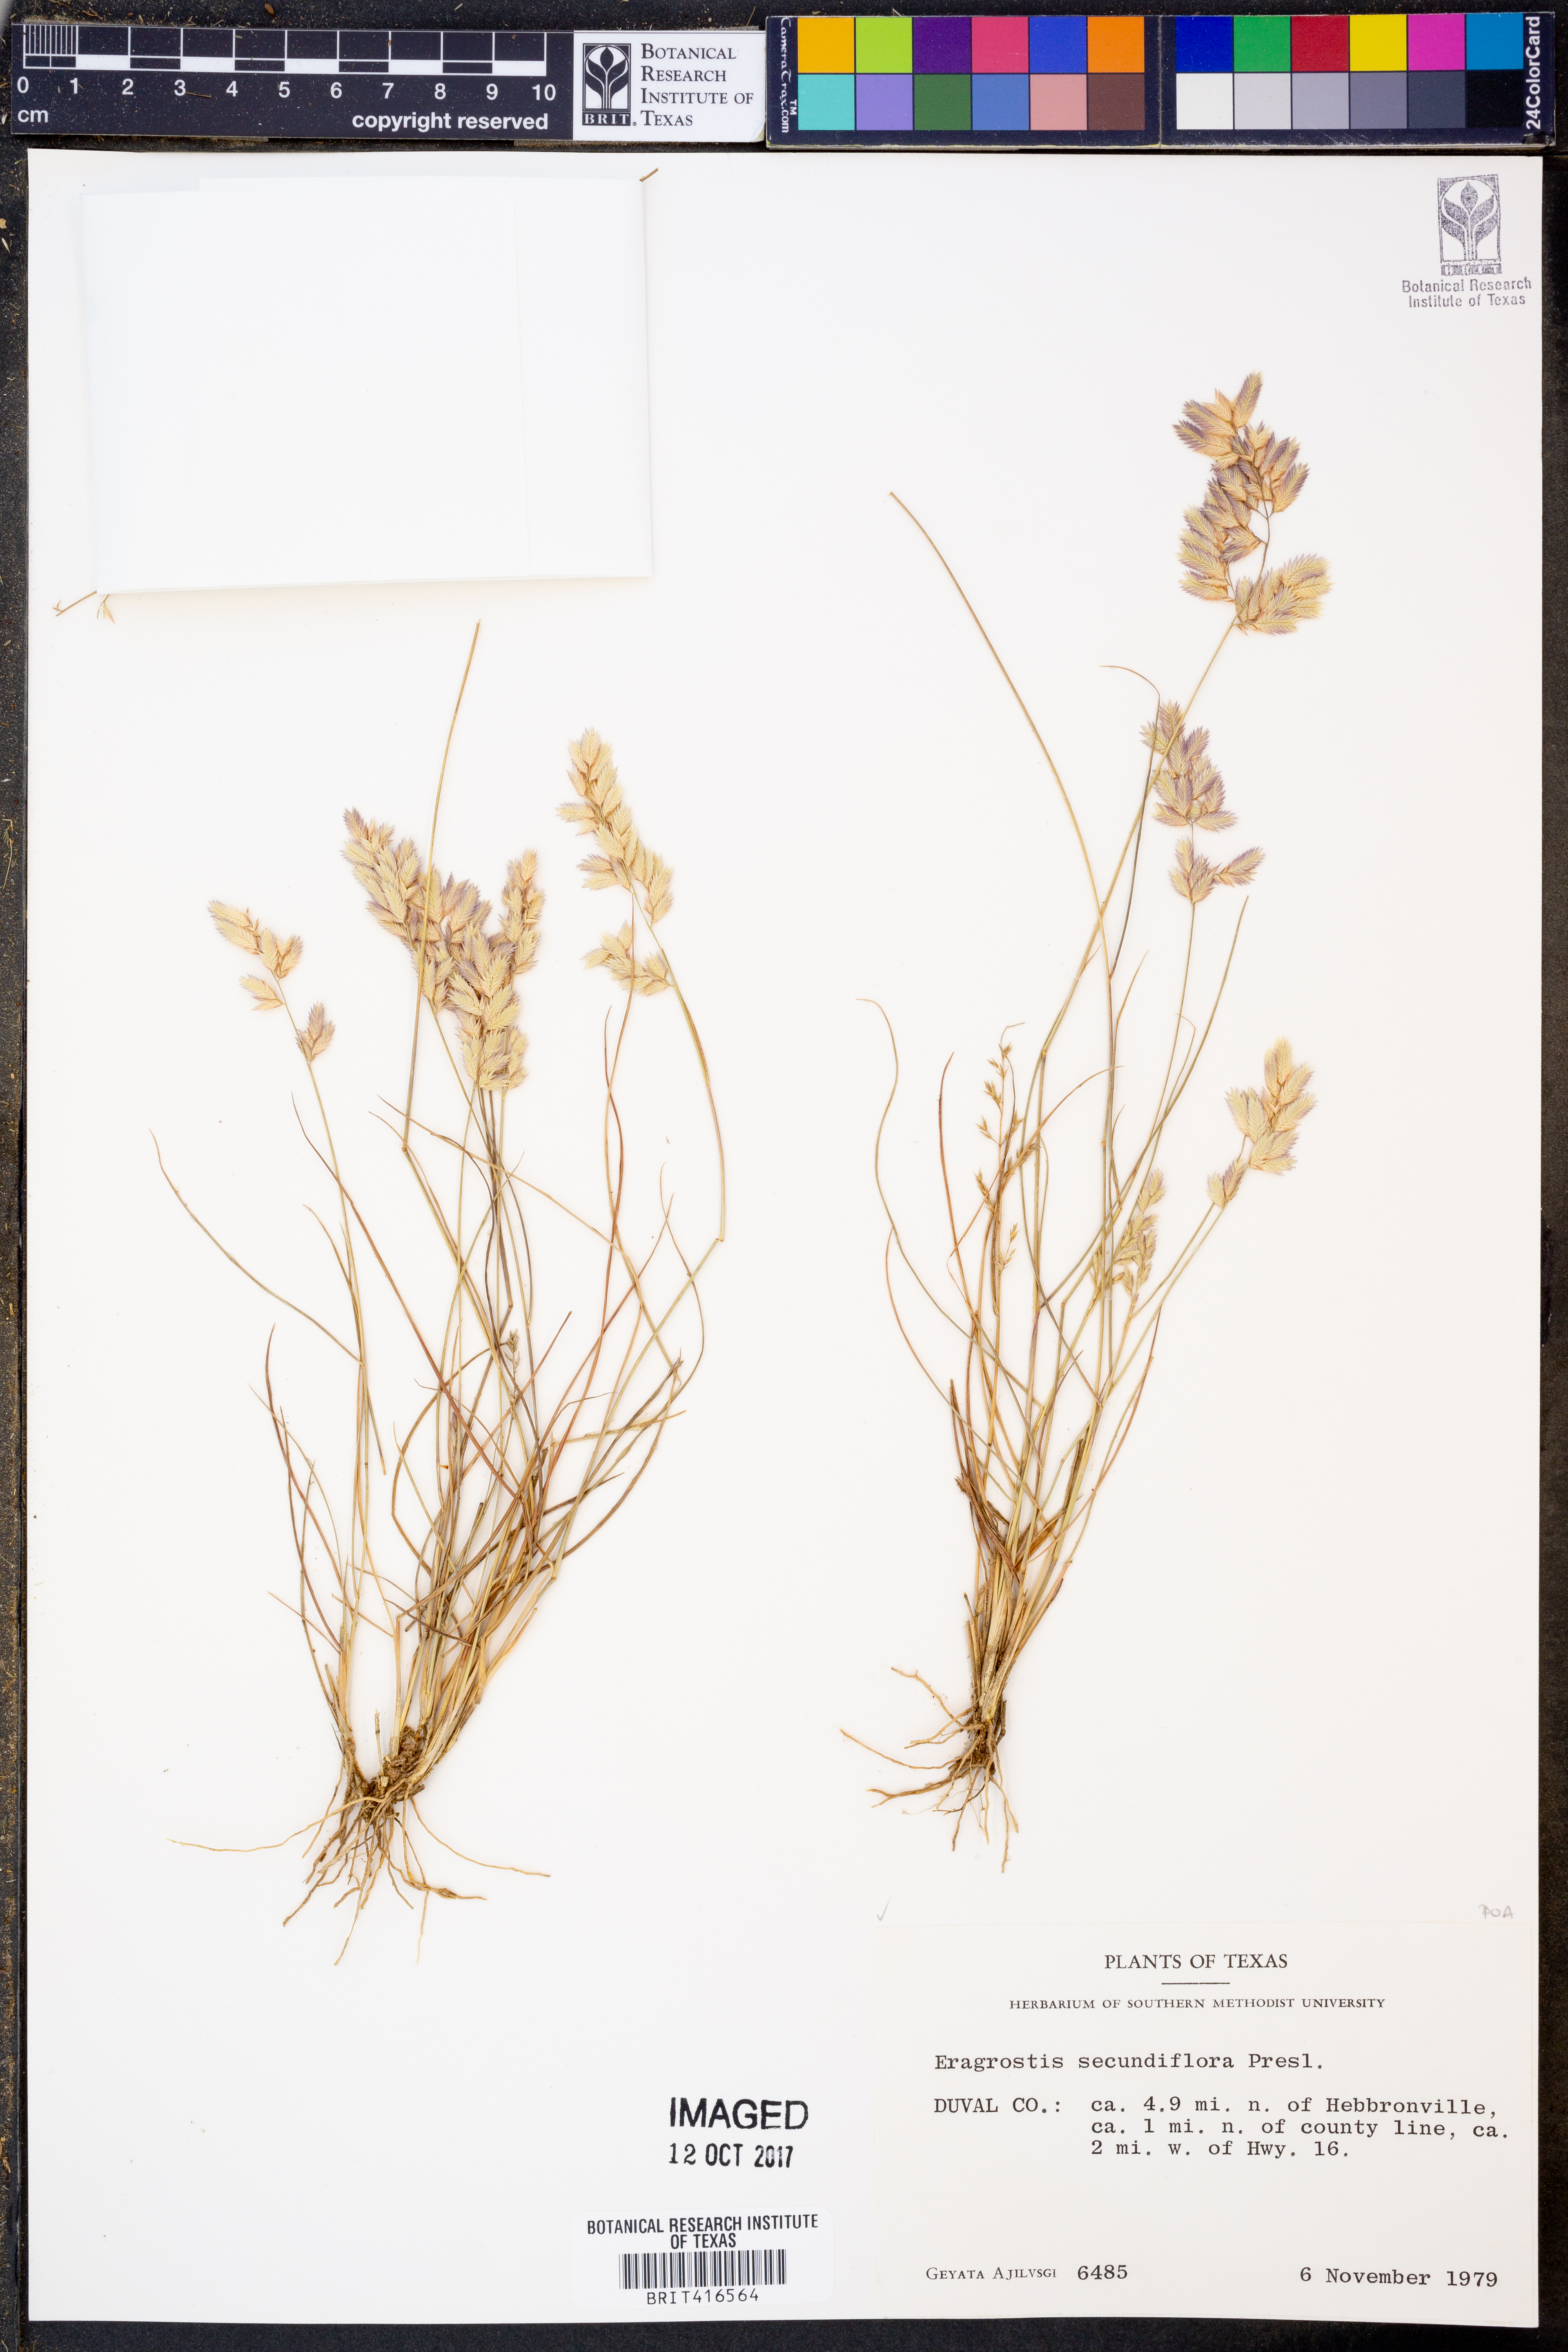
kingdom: Plantae
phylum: Tracheophyta
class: Liliopsida
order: Poales
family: Poaceae
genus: Eragrostis
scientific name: Eragrostis secundiflora
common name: Red love grass
